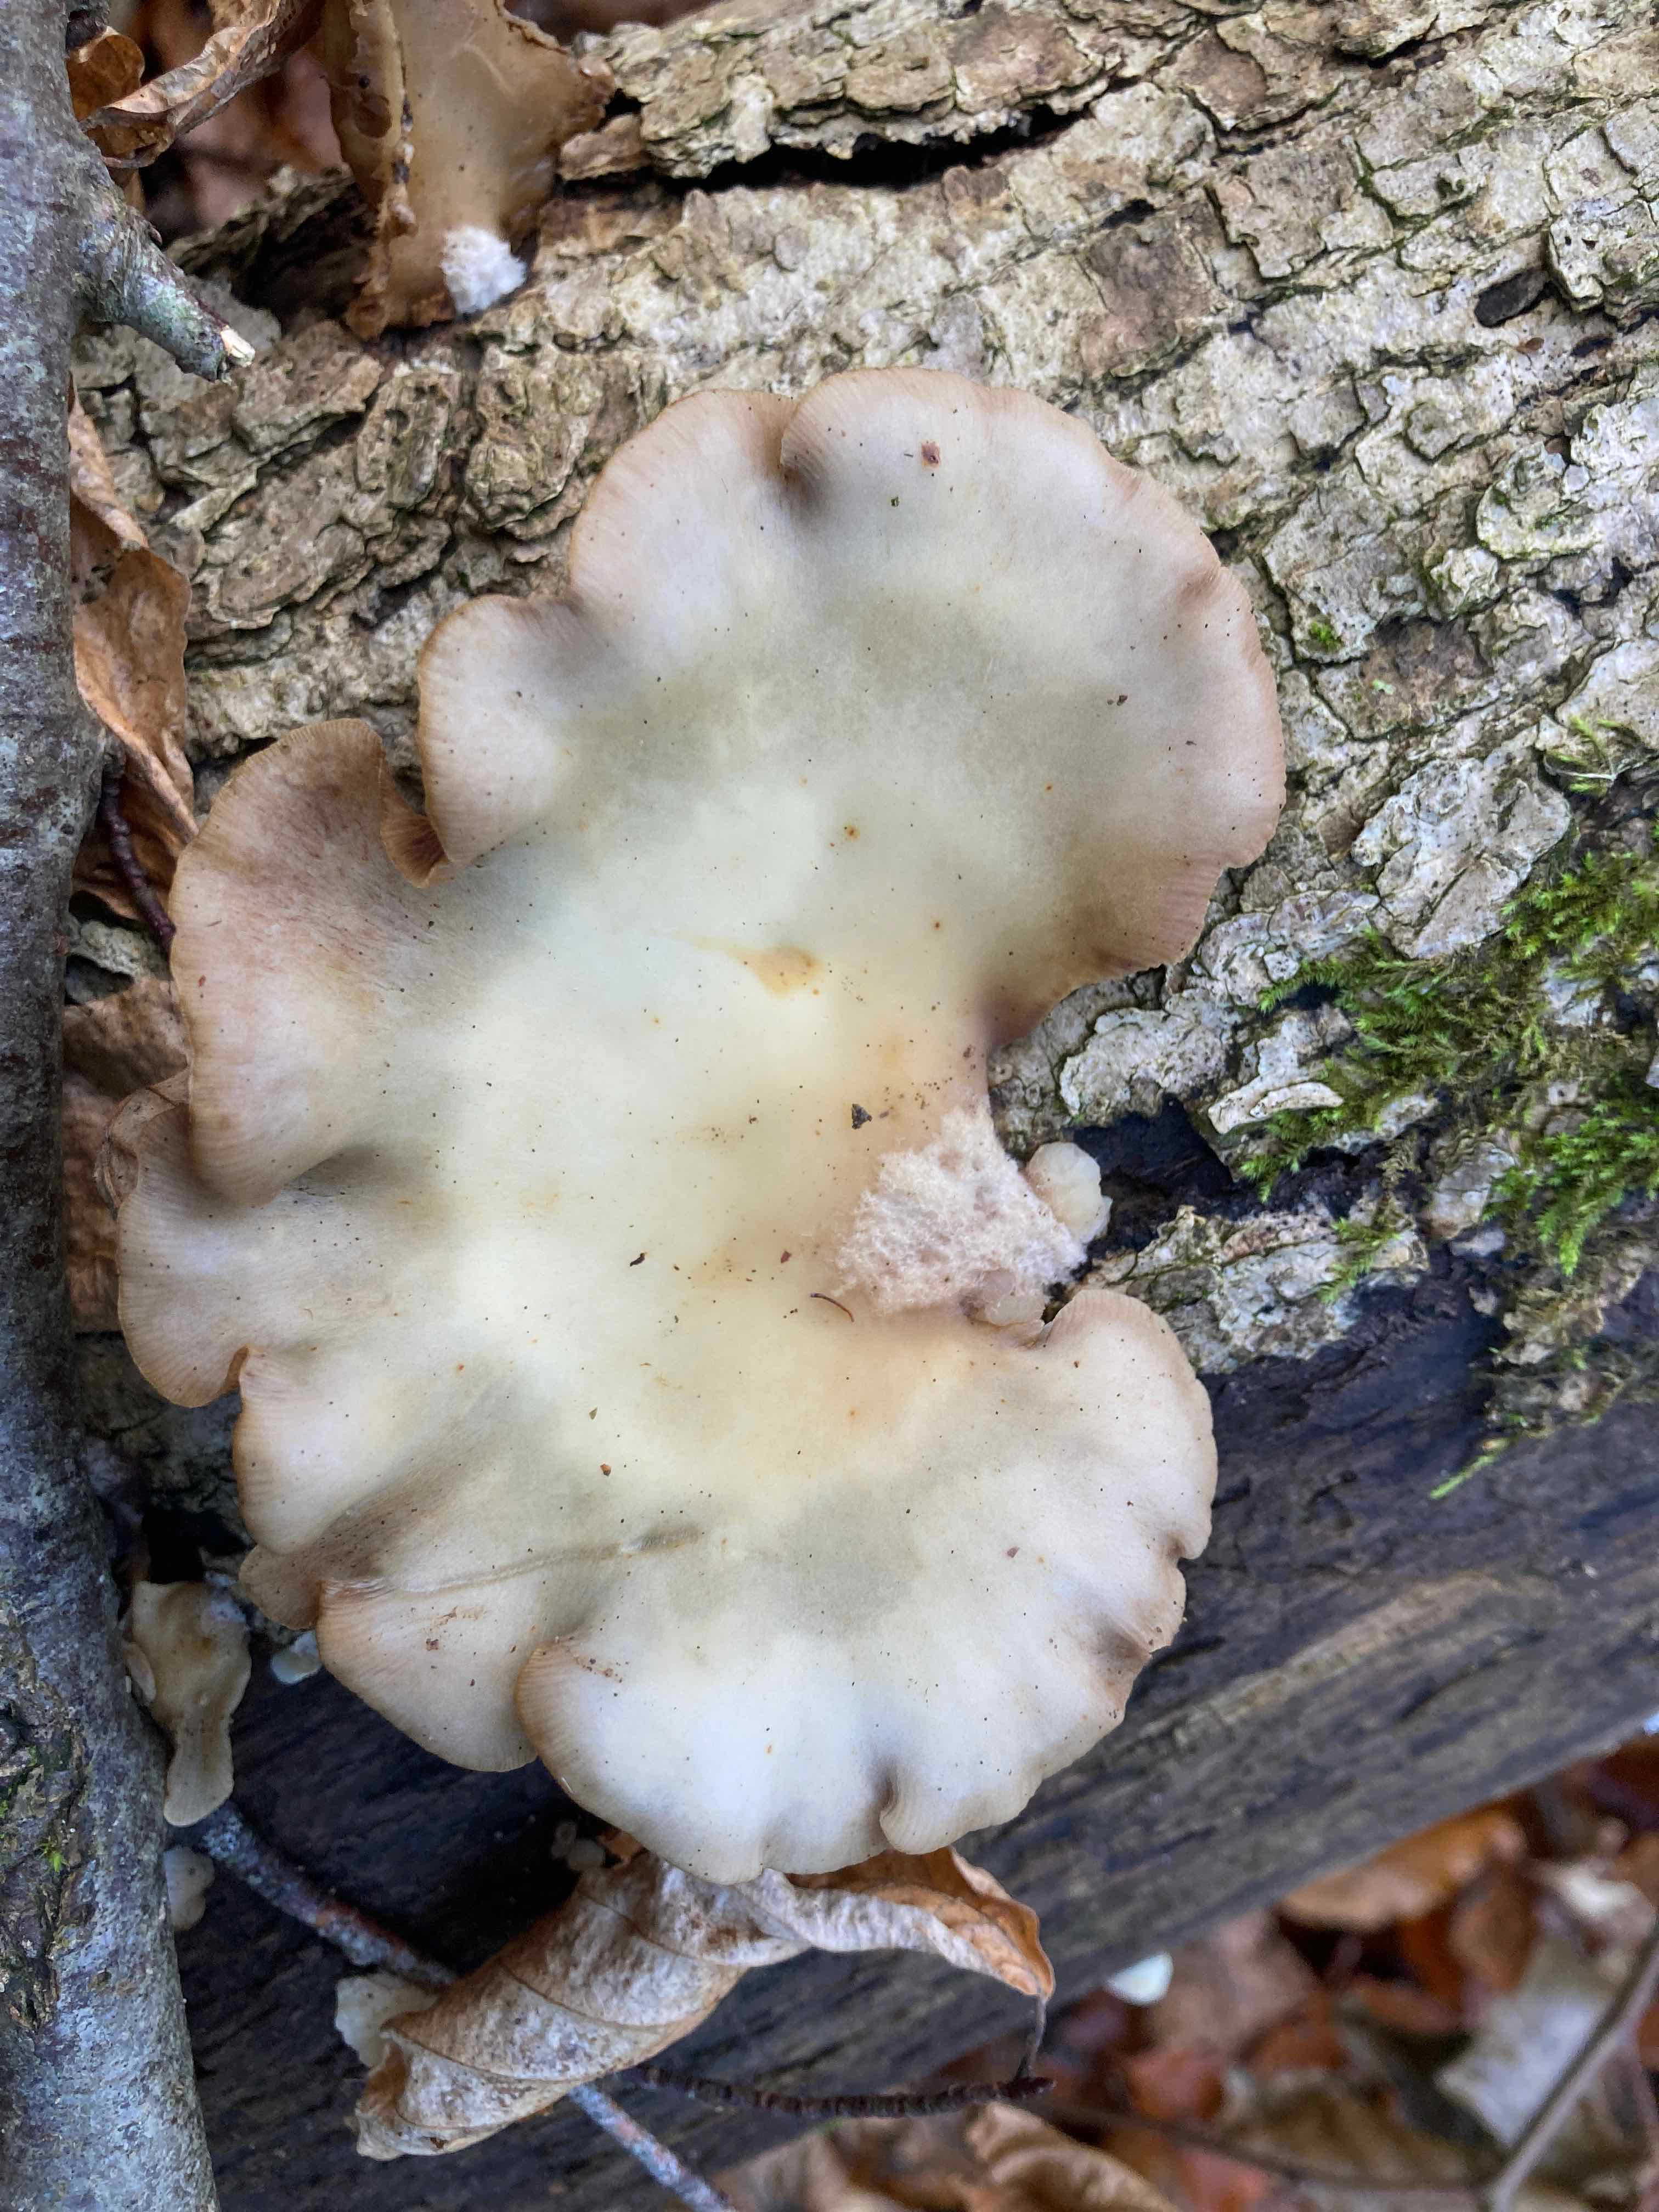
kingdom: Fungi
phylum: Basidiomycota
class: Agaricomycetes
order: Agaricales
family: Crepidotaceae
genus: Crepidotus
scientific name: Crepidotus mollis
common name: blød muslingesvamp
